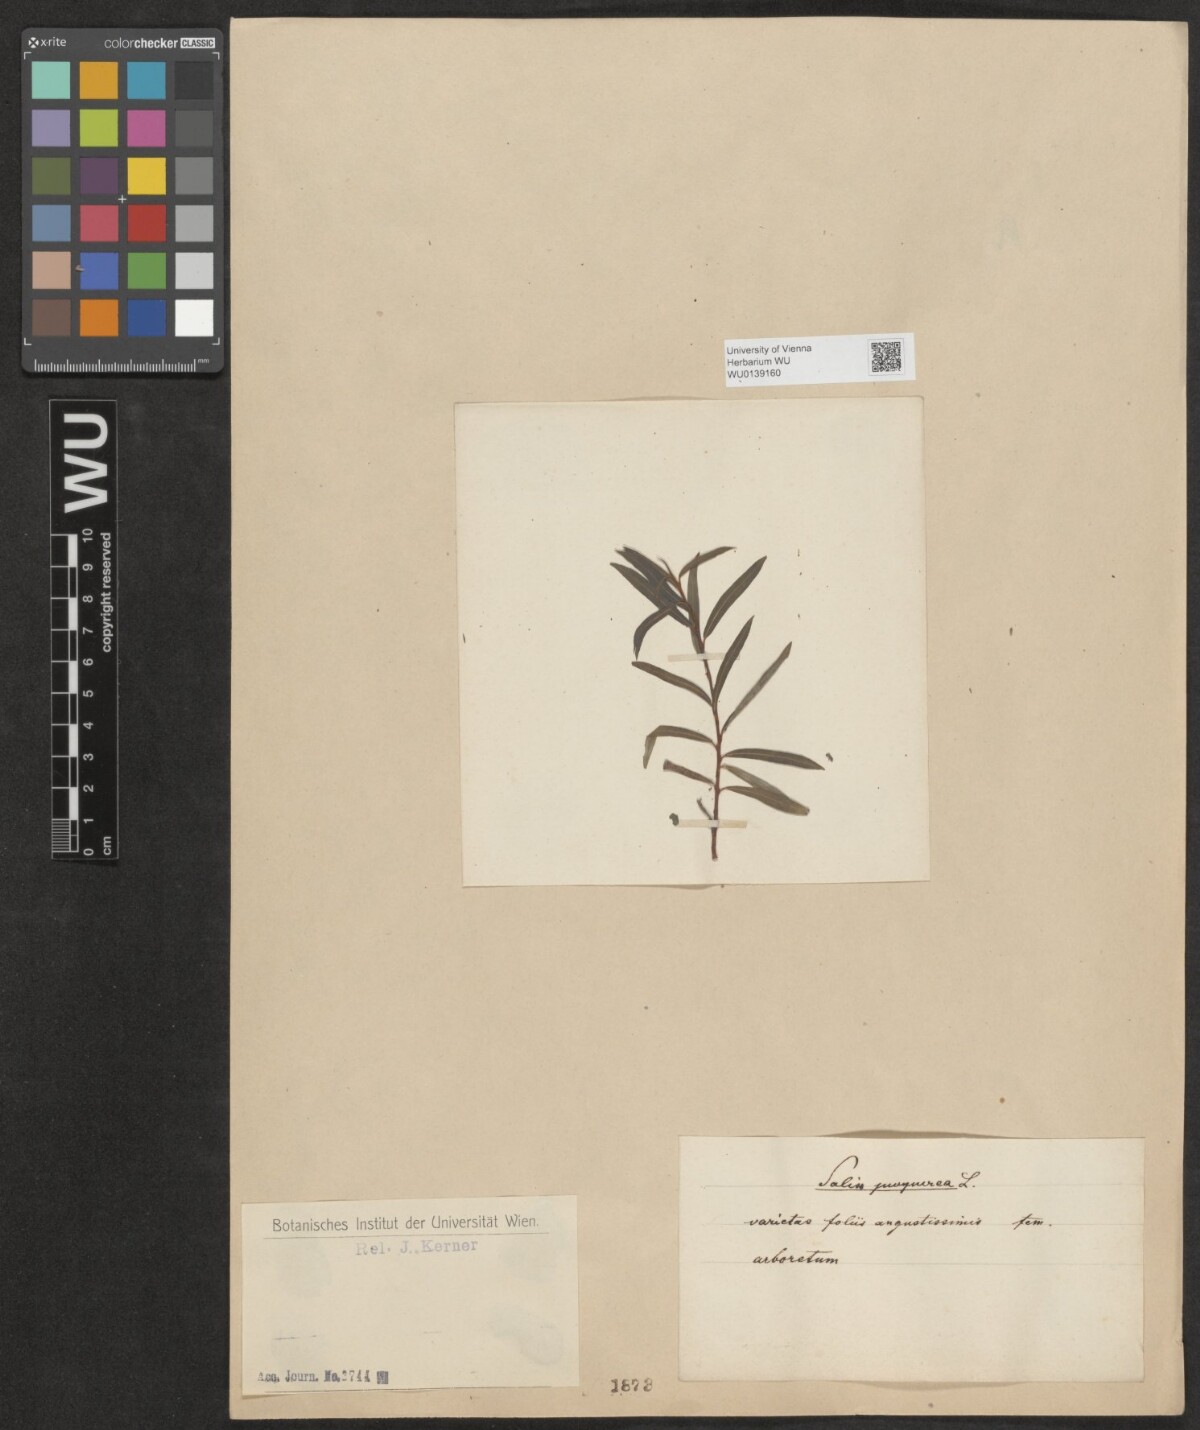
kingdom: Plantae
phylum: Tracheophyta
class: Magnoliopsida
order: Malpighiales
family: Salicaceae
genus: Salix
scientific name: Salix purpurea
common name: Purple willow
